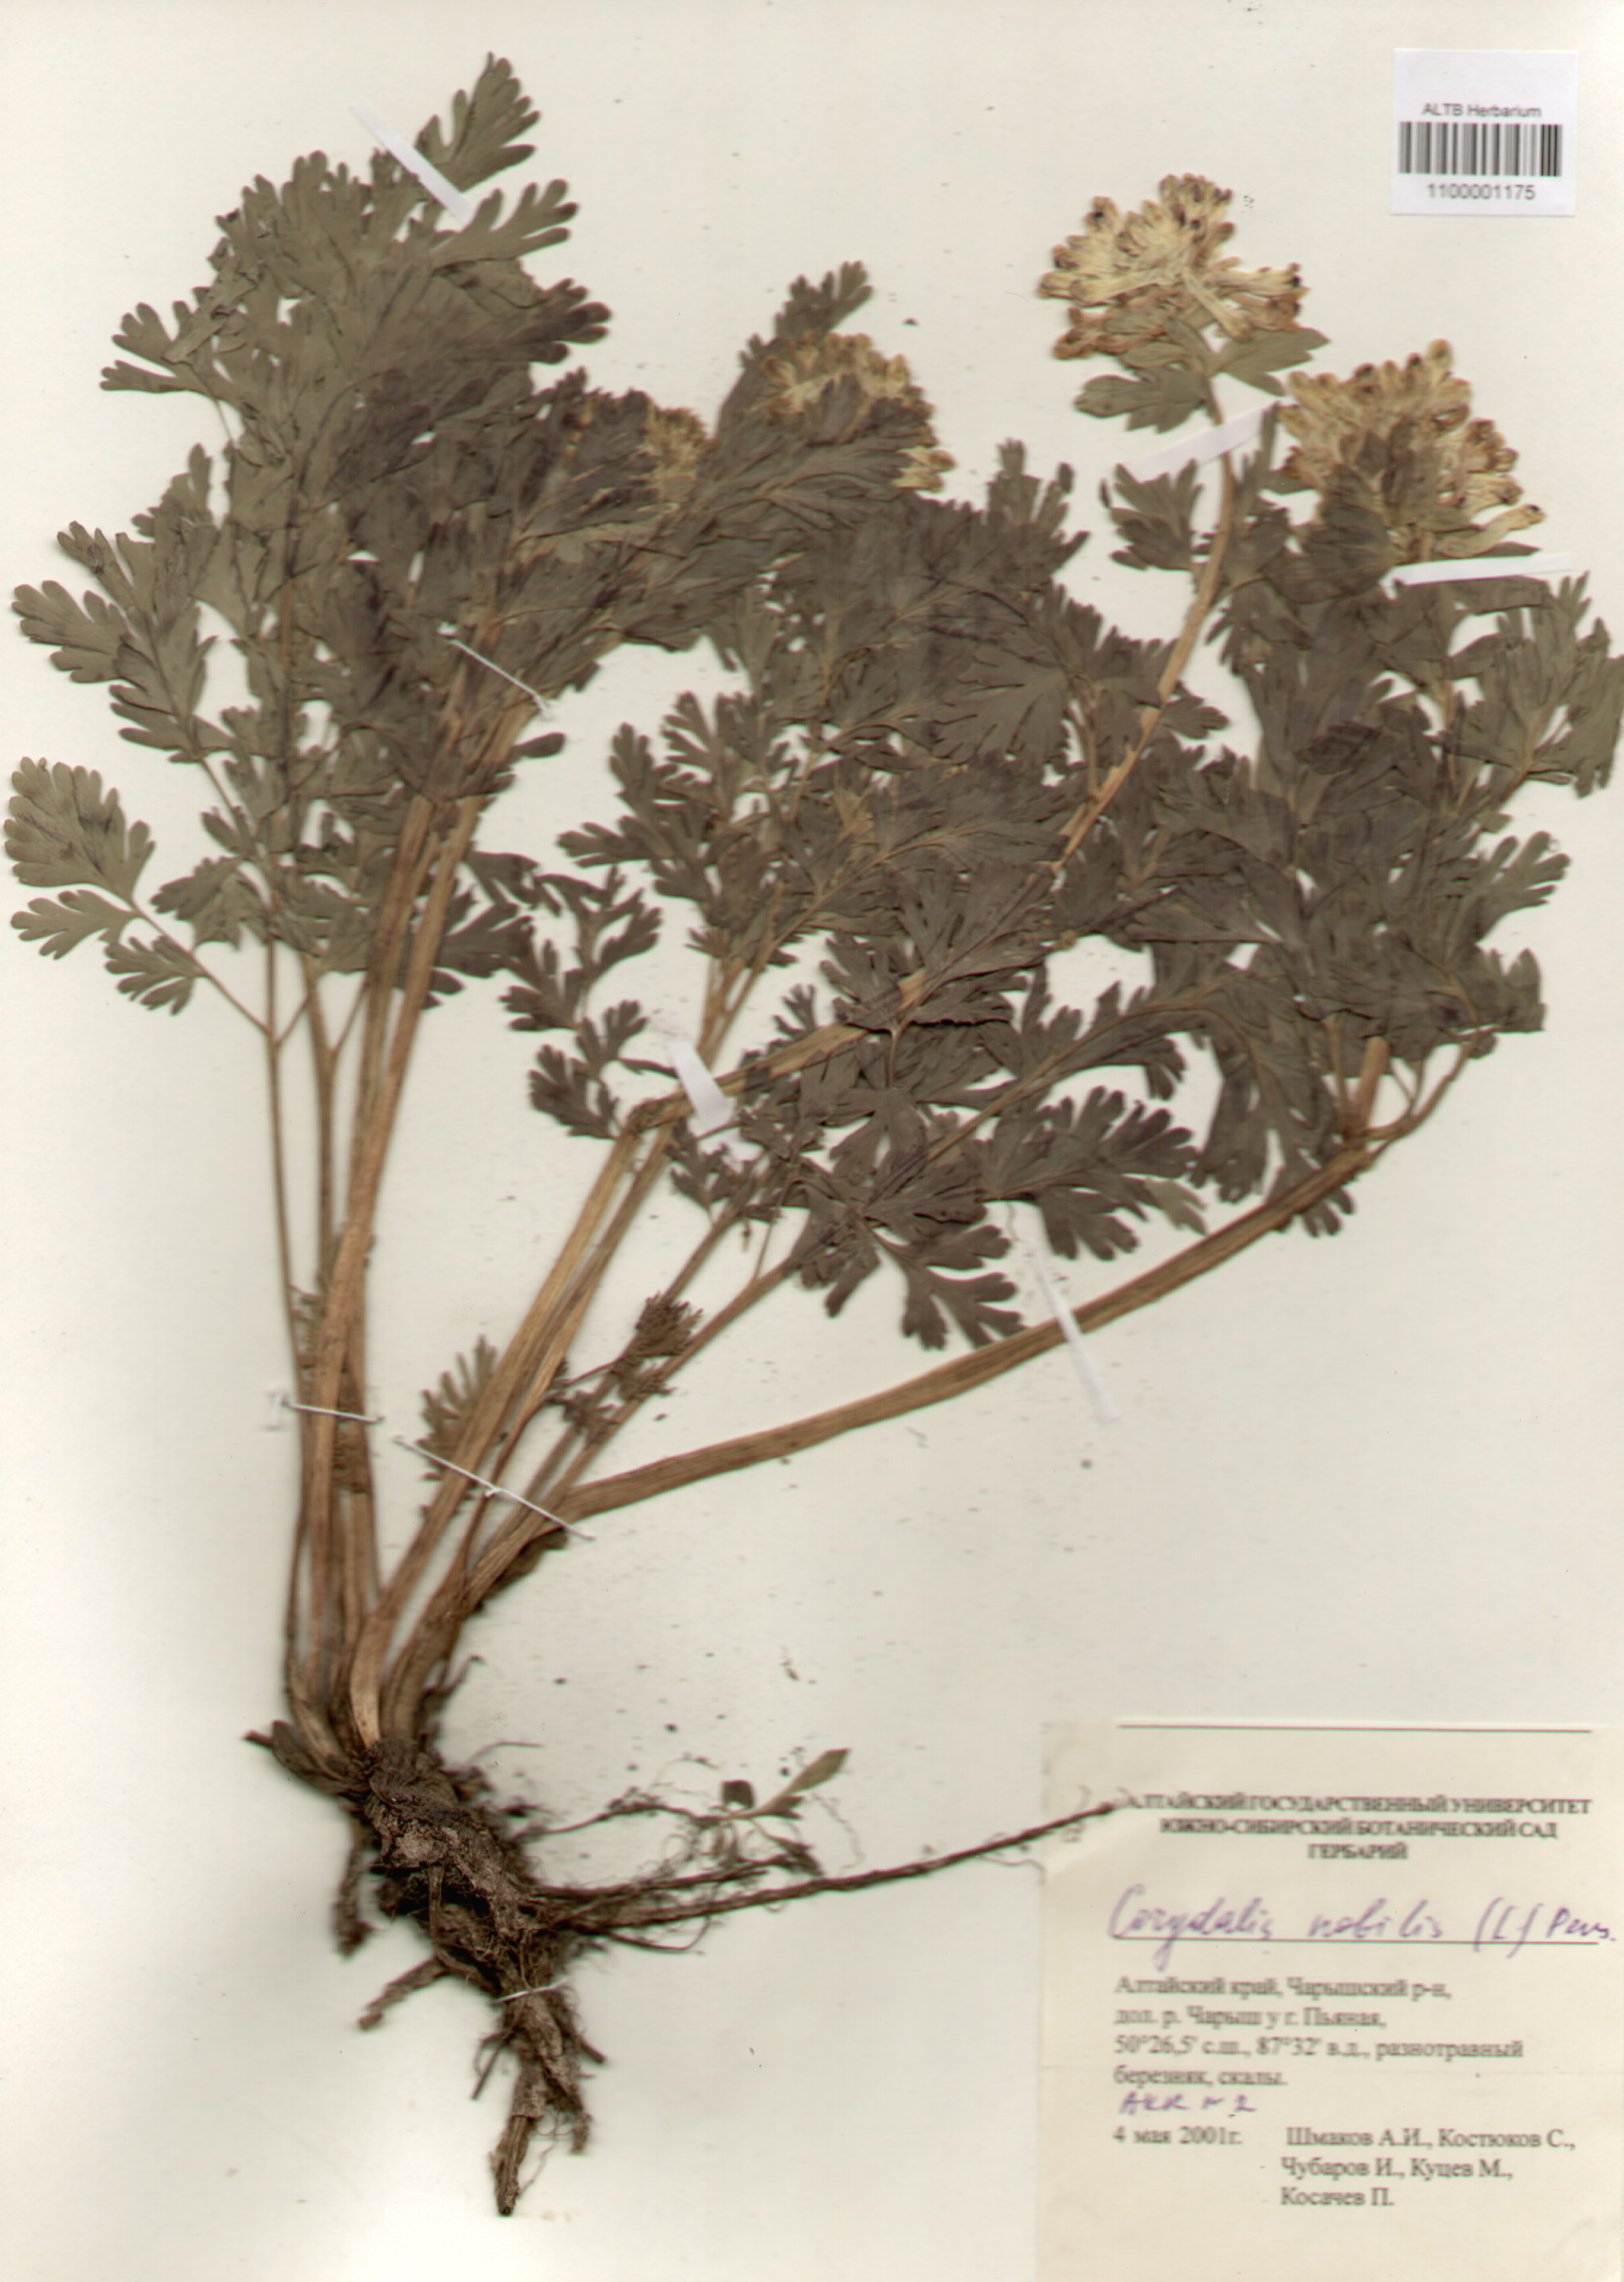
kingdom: Plantae
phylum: Tracheophyta
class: Magnoliopsida
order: Ranunculales
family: Papaveraceae
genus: Corydalis
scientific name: Corydalis nobilis
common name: Siberian corydalis
